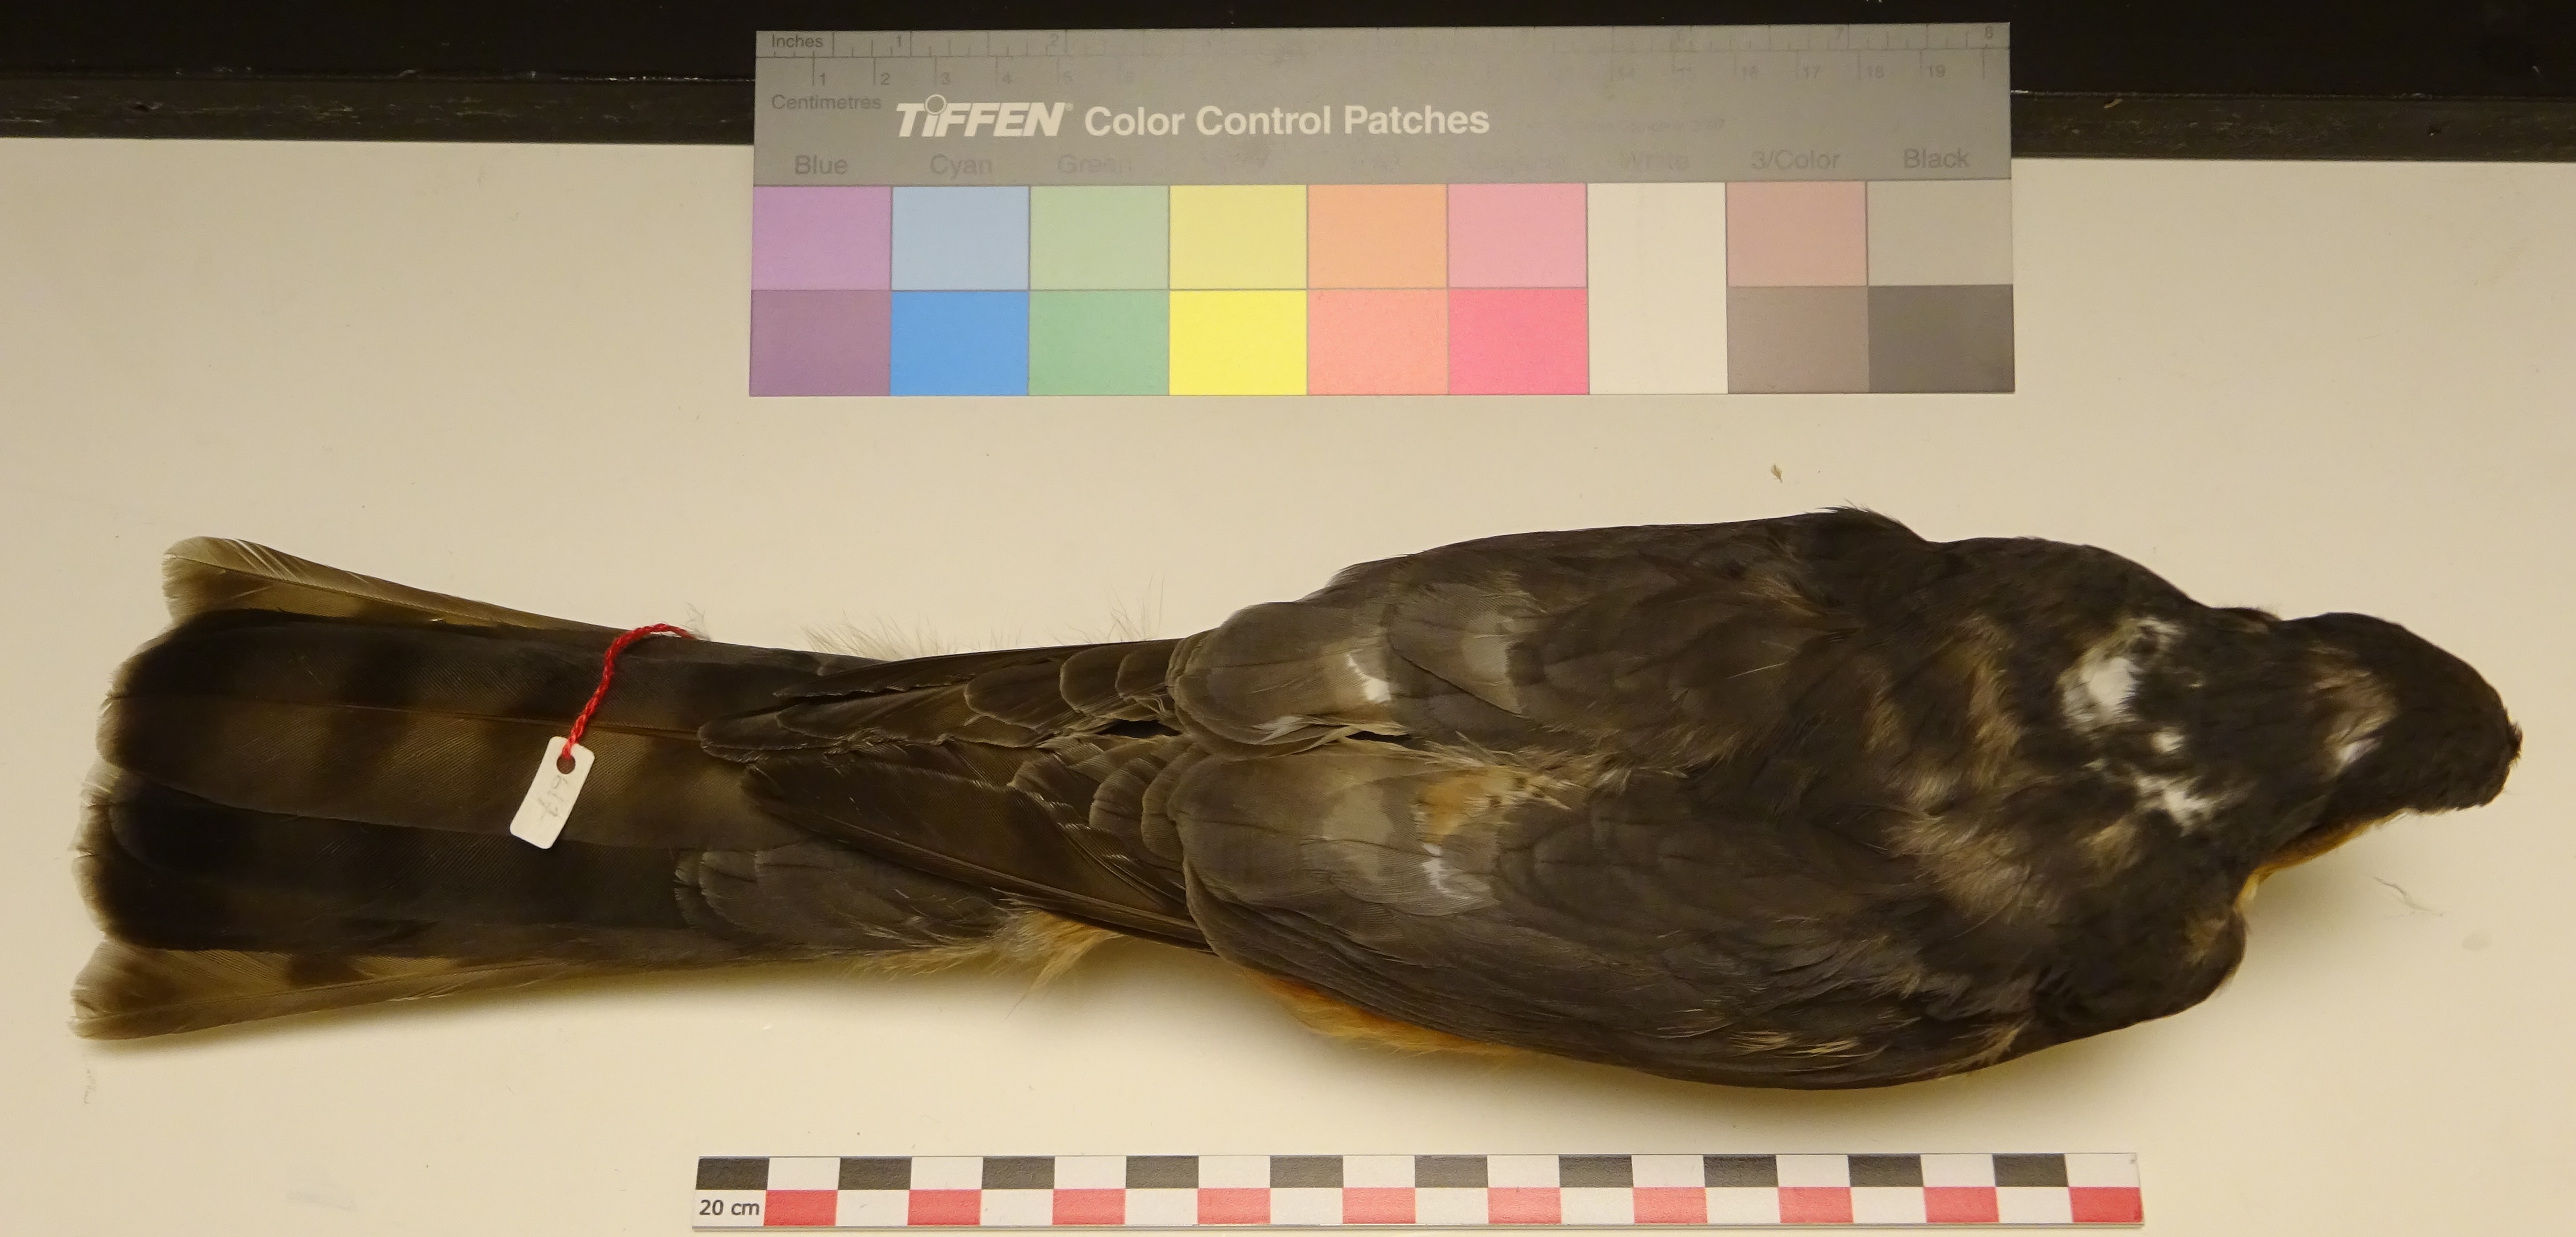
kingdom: Animalia
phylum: Chordata
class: Aves
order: Accipitriformes
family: Accipitridae
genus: Accipiter
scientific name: Accipiter nisus
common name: Eurasian sparrowhawk
